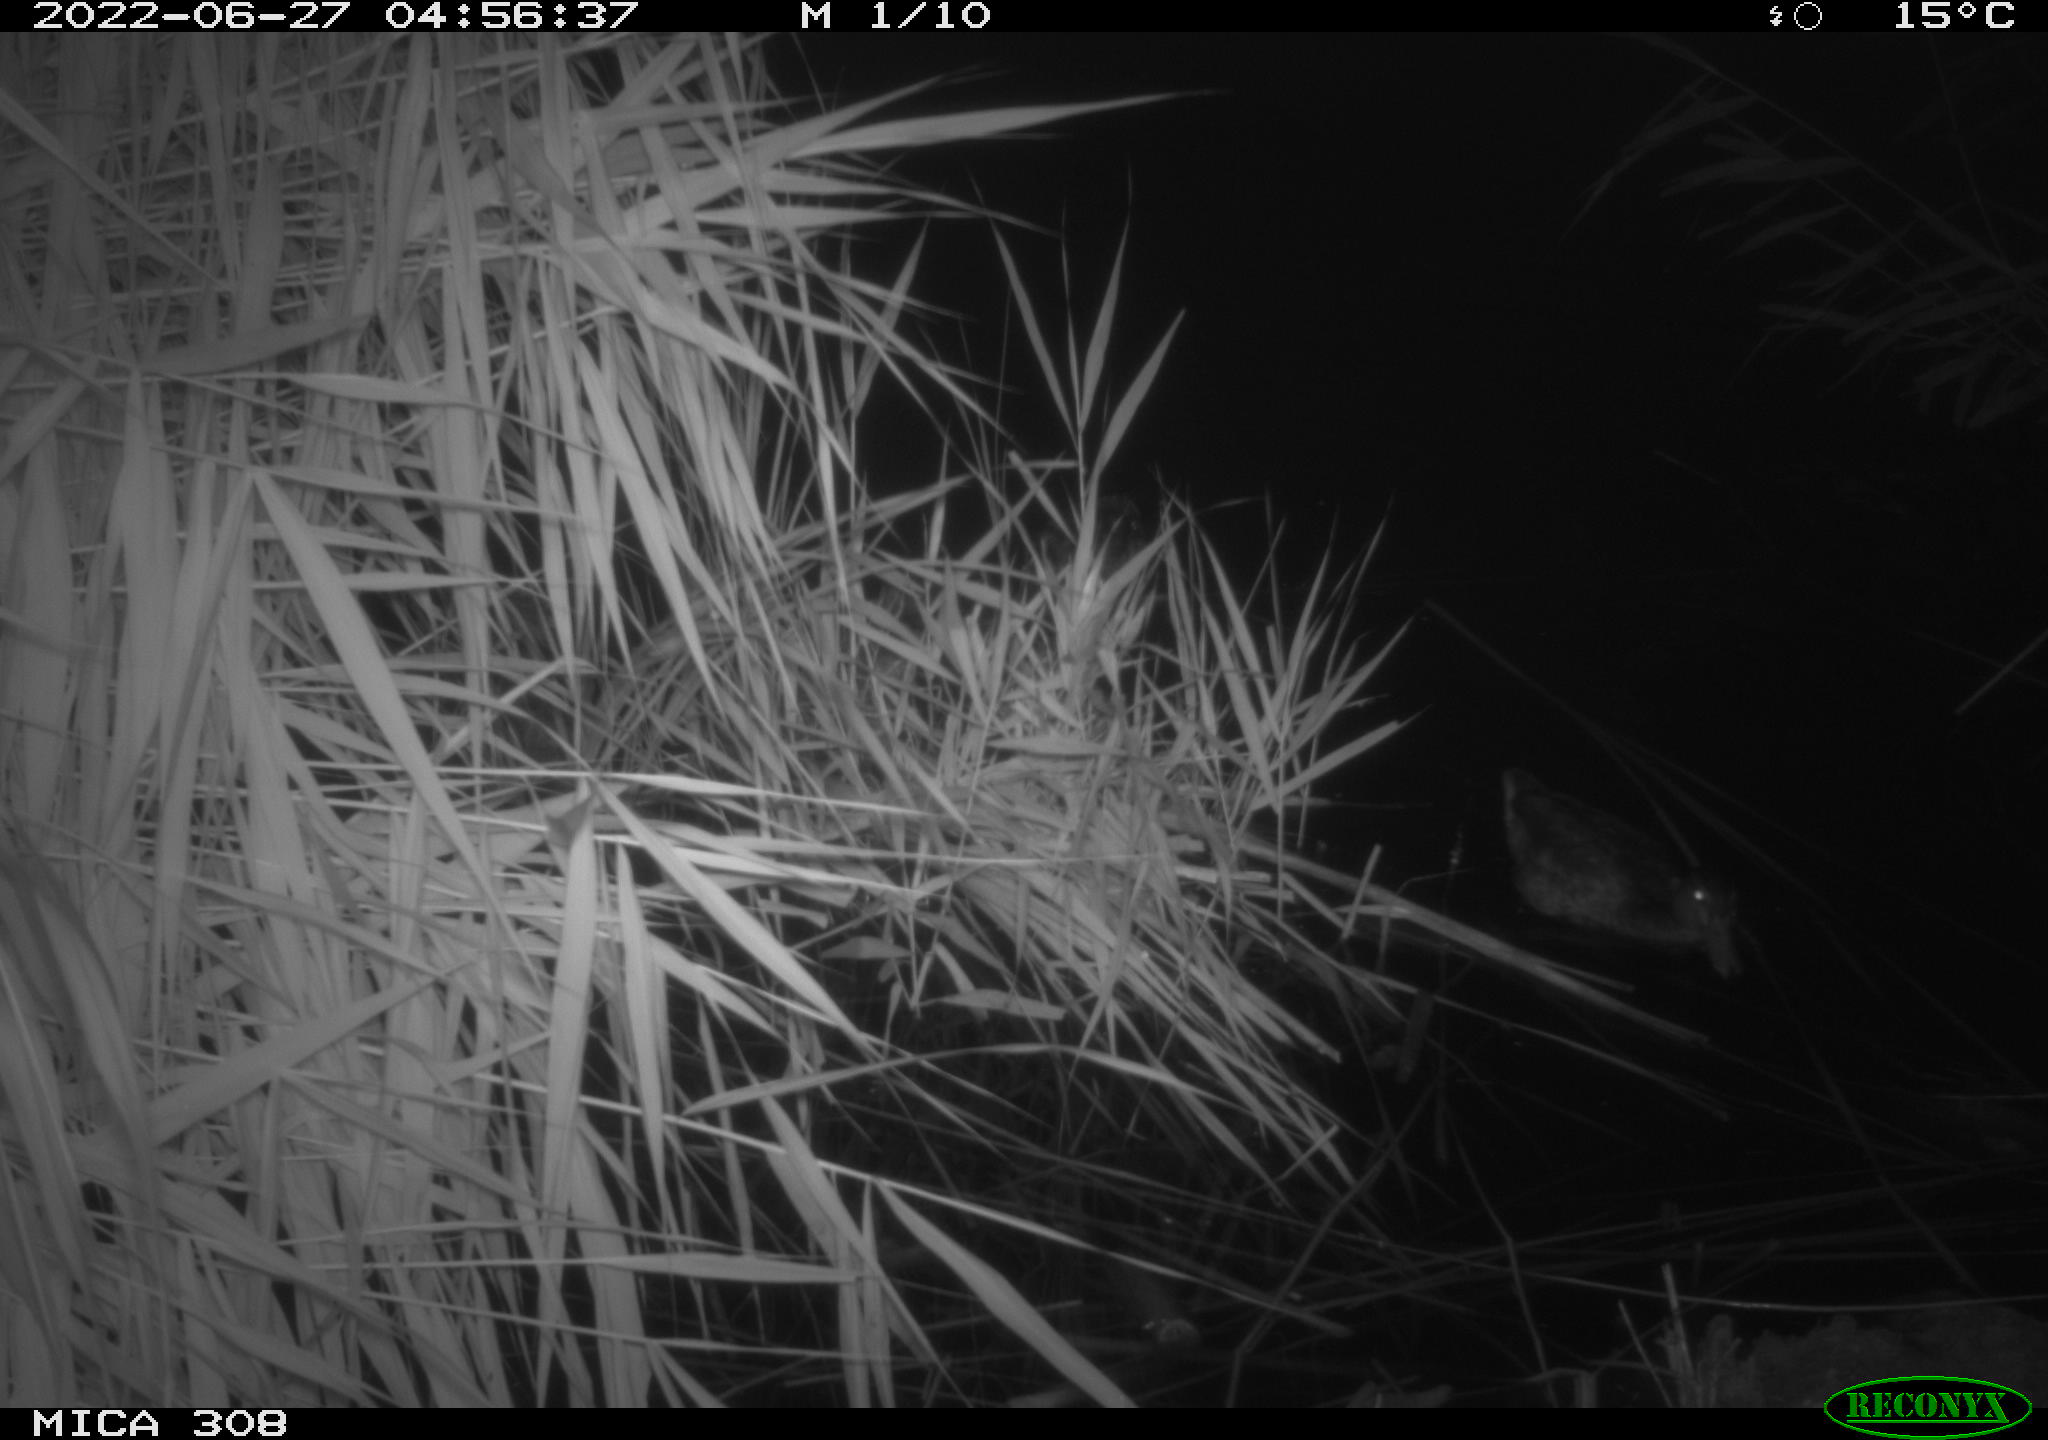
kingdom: Animalia
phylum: Chordata
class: Aves
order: Gruiformes
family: Rallidae
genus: Gallinula
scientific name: Gallinula chloropus
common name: Common moorhen
